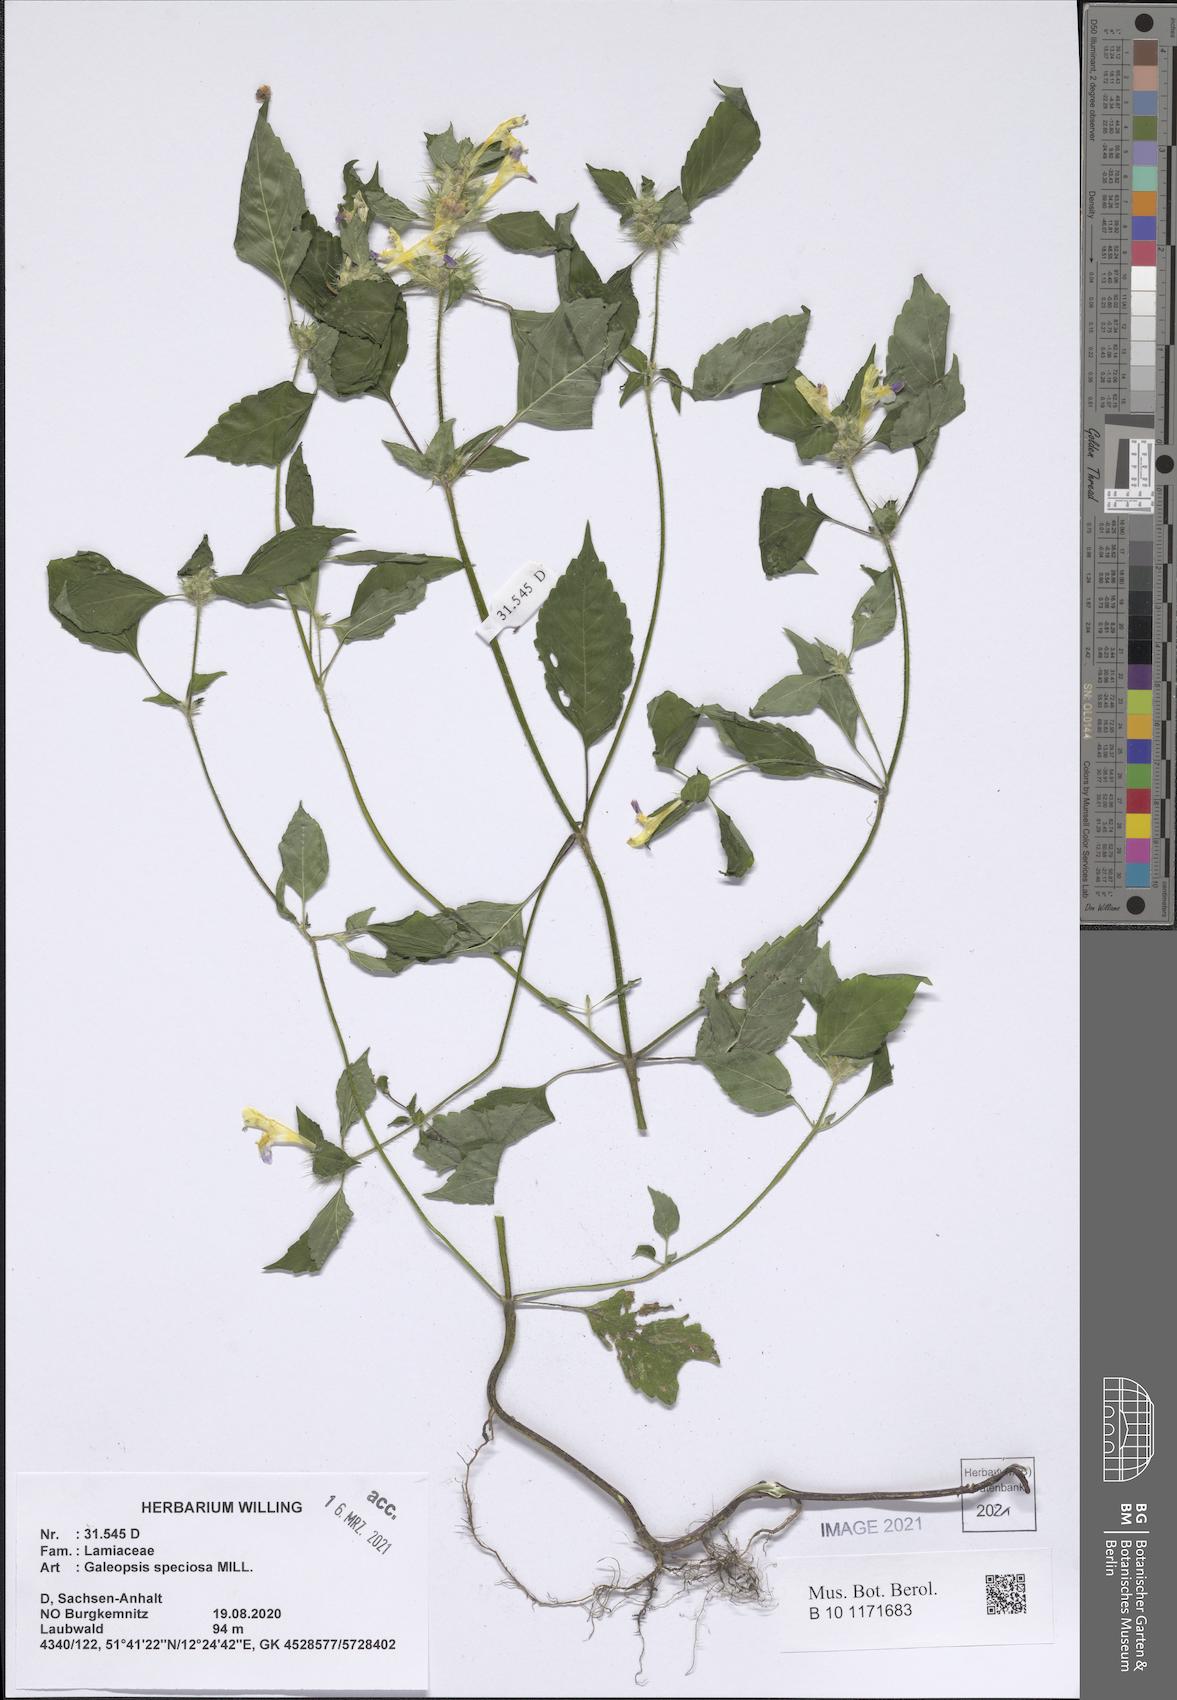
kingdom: Plantae
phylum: Tracheophyta
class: Magnoliopsida
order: Lamiales
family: Lamiaceae
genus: Galeopsis
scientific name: Galeopsis speciosa
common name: Large-flowered hemp-nettle
